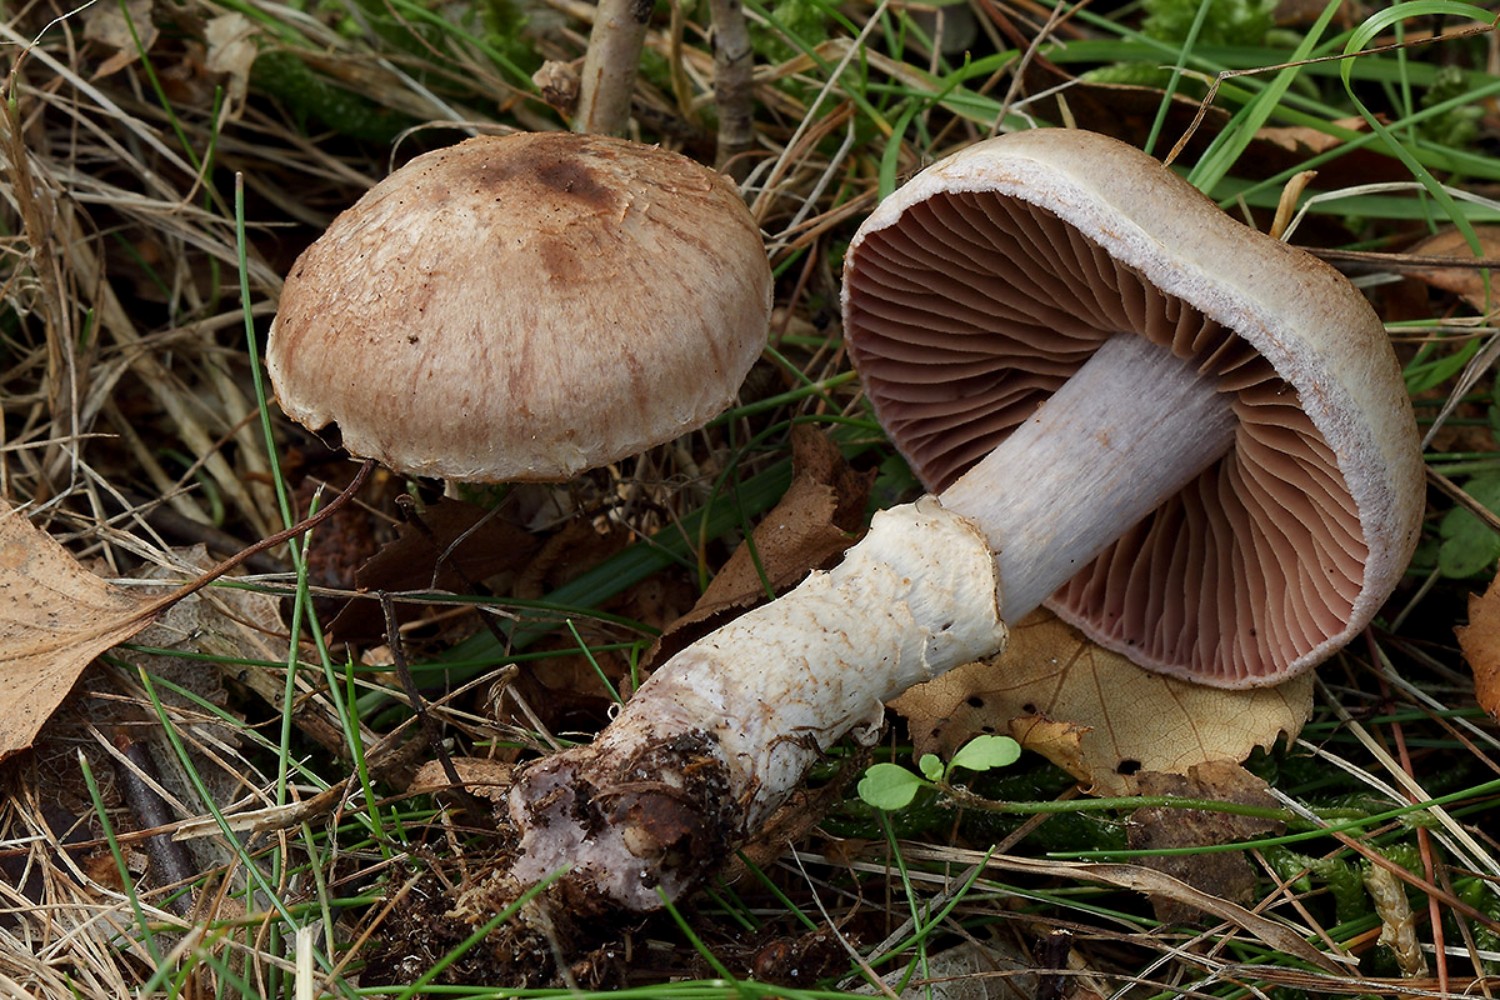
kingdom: Fungi
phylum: Basidiomycota
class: Agaricomycetes
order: Agaricales
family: Cortinariaceae
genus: Cortinarius
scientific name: Cortinarius torvus
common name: champignonagtig slørhat
